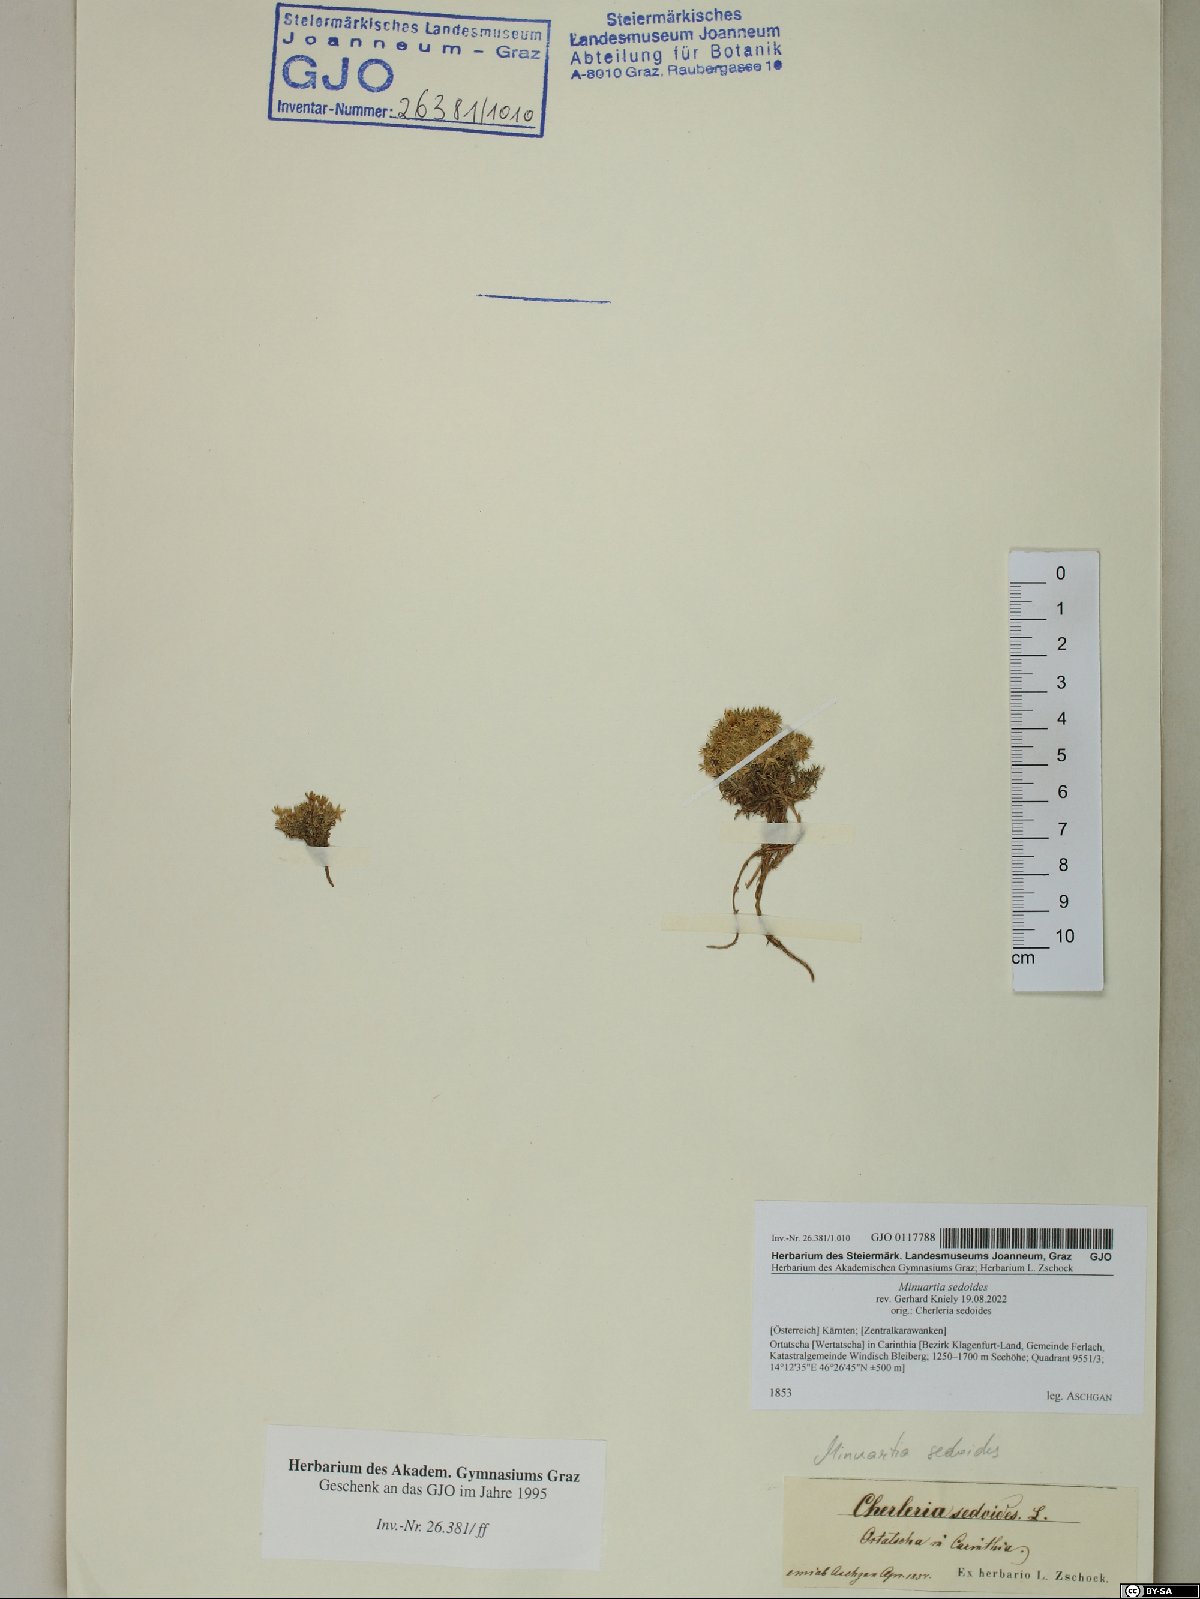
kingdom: Plantae
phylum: Tracheophyta
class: Magnoliopsida
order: Caryophyllales
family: Caryophyllaceae
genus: Cherleria
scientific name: Cherleria sedoides
